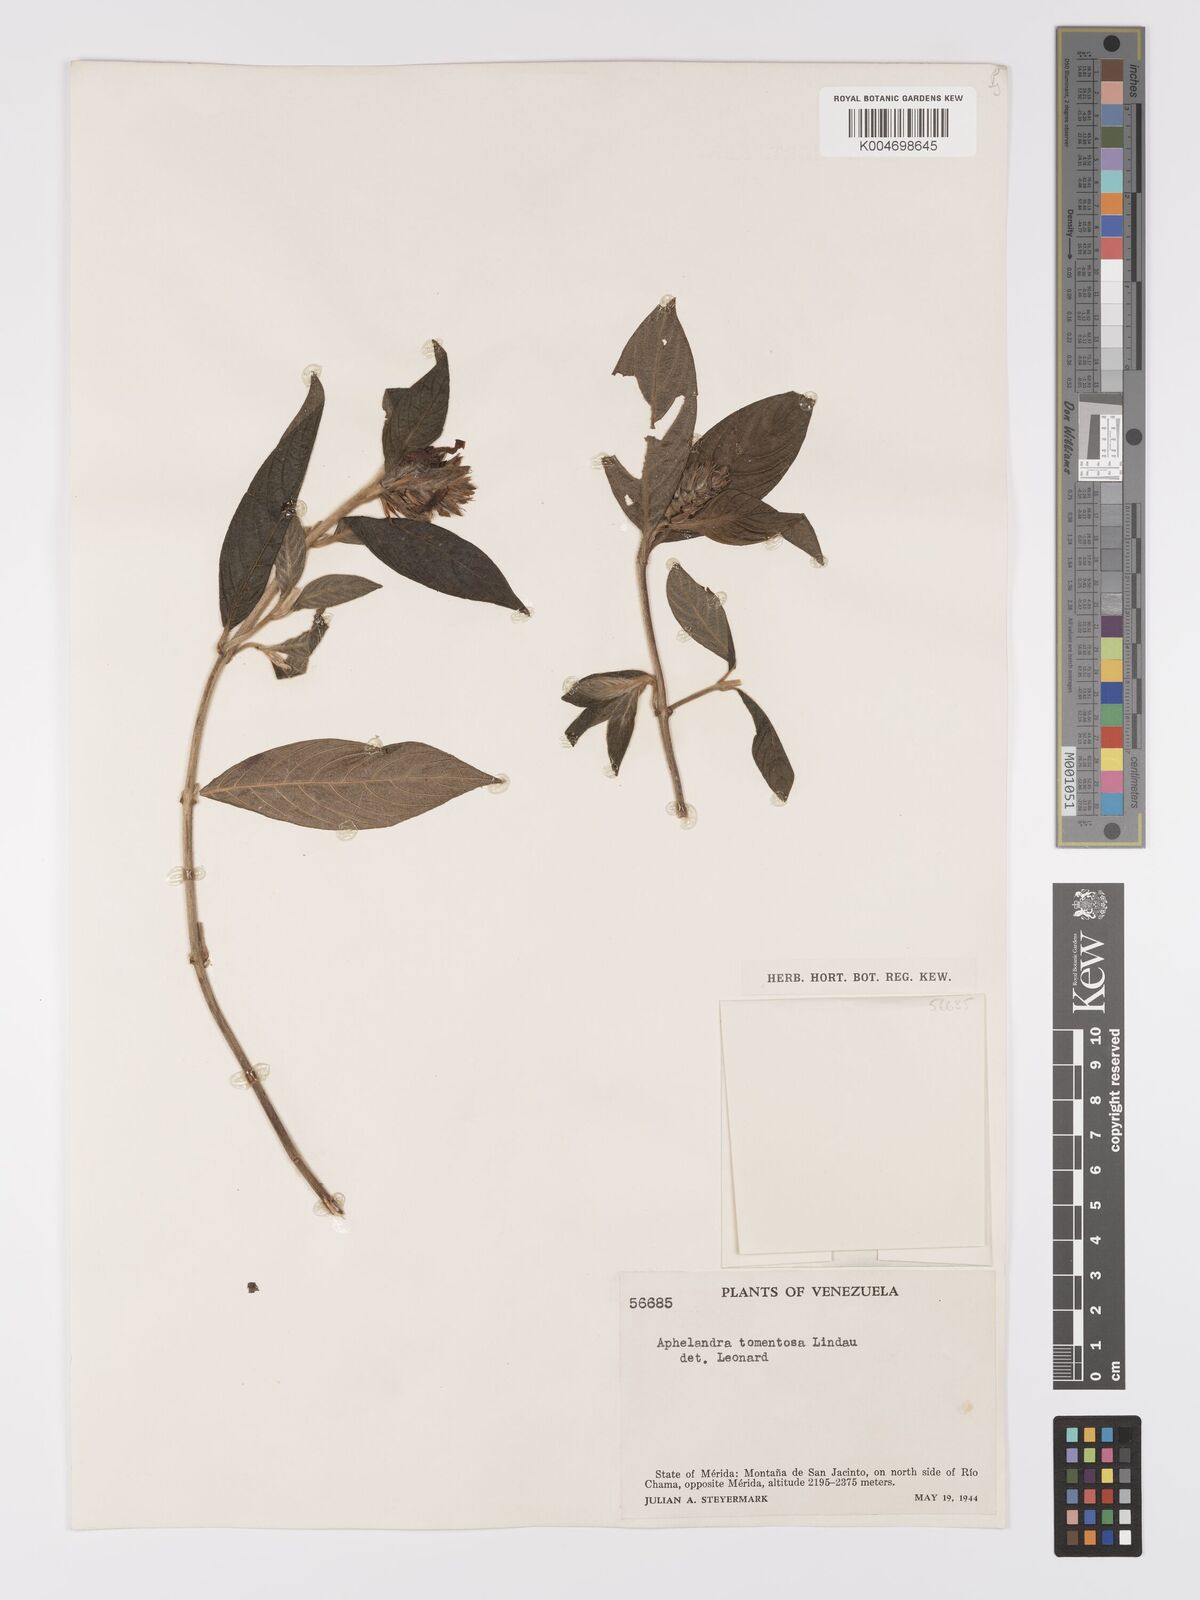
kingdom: Plantae
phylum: Tracheophyta
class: Magnoliopsida
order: Lamiales
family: Acanthaceae
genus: Aphelandra
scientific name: Aphelandra tomentosa
